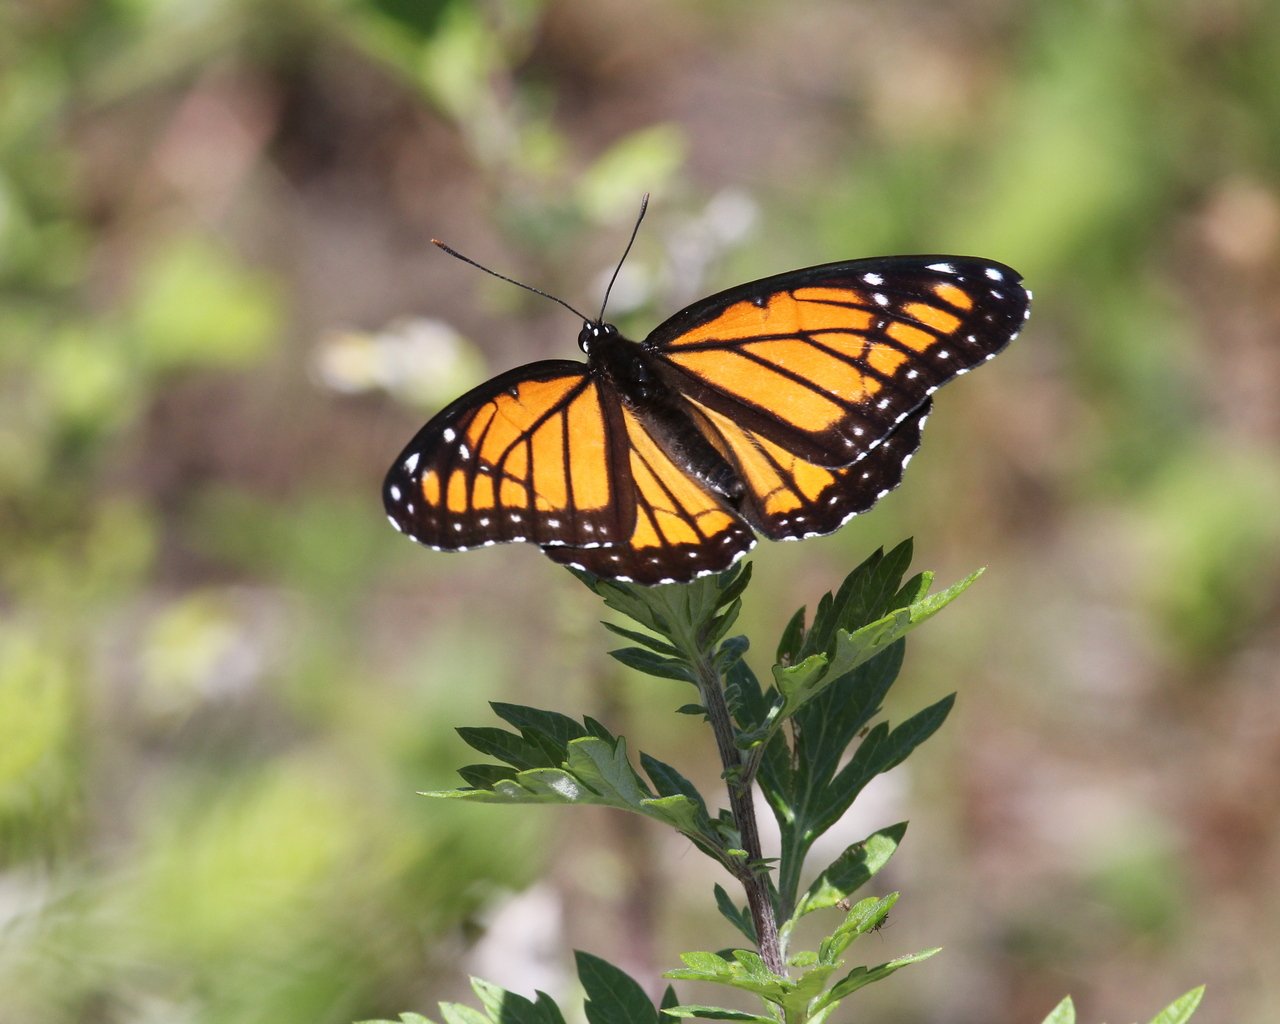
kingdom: Animalia
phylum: Arthropoda
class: Insecta
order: Lepidoptera
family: Nymphalidae
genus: Limenitis
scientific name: Limenitis archippus
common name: Viceroy
